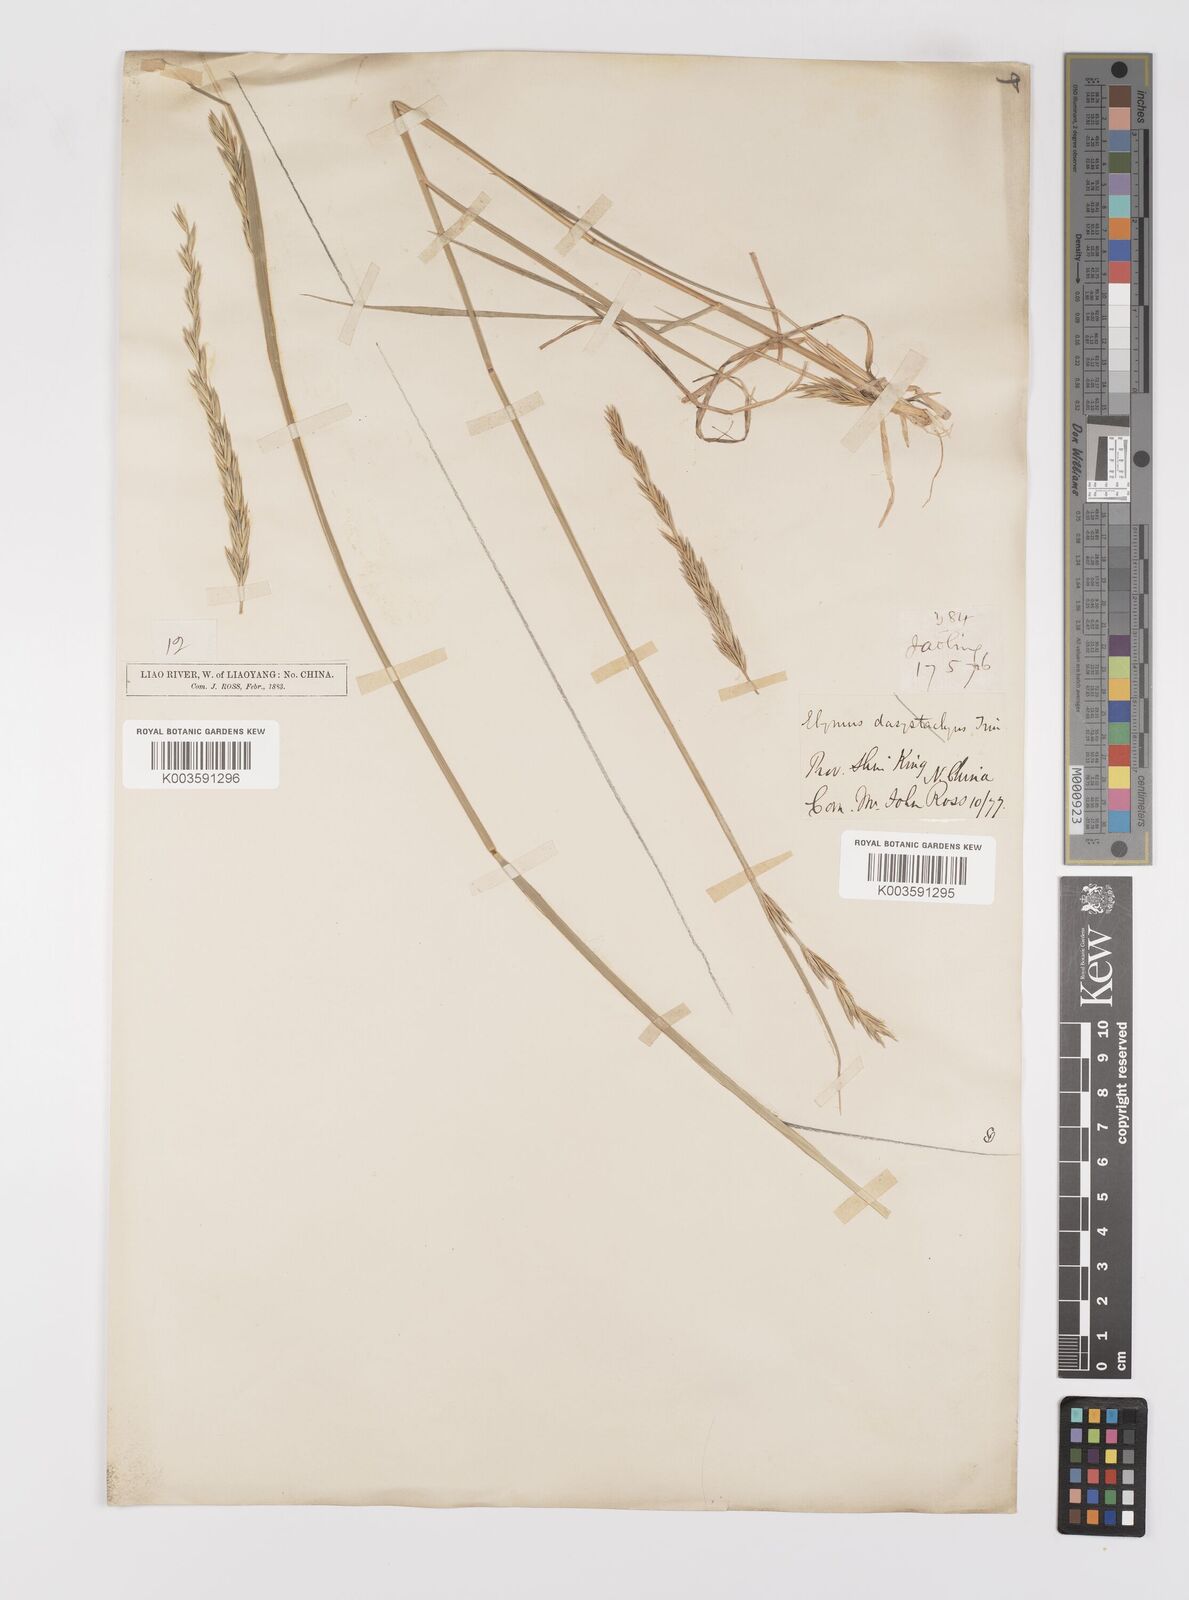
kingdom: Plantae
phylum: Tracheophyta
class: Liliopsida
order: Poales
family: Poaceae
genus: Leymus
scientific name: Leymus secalinus
